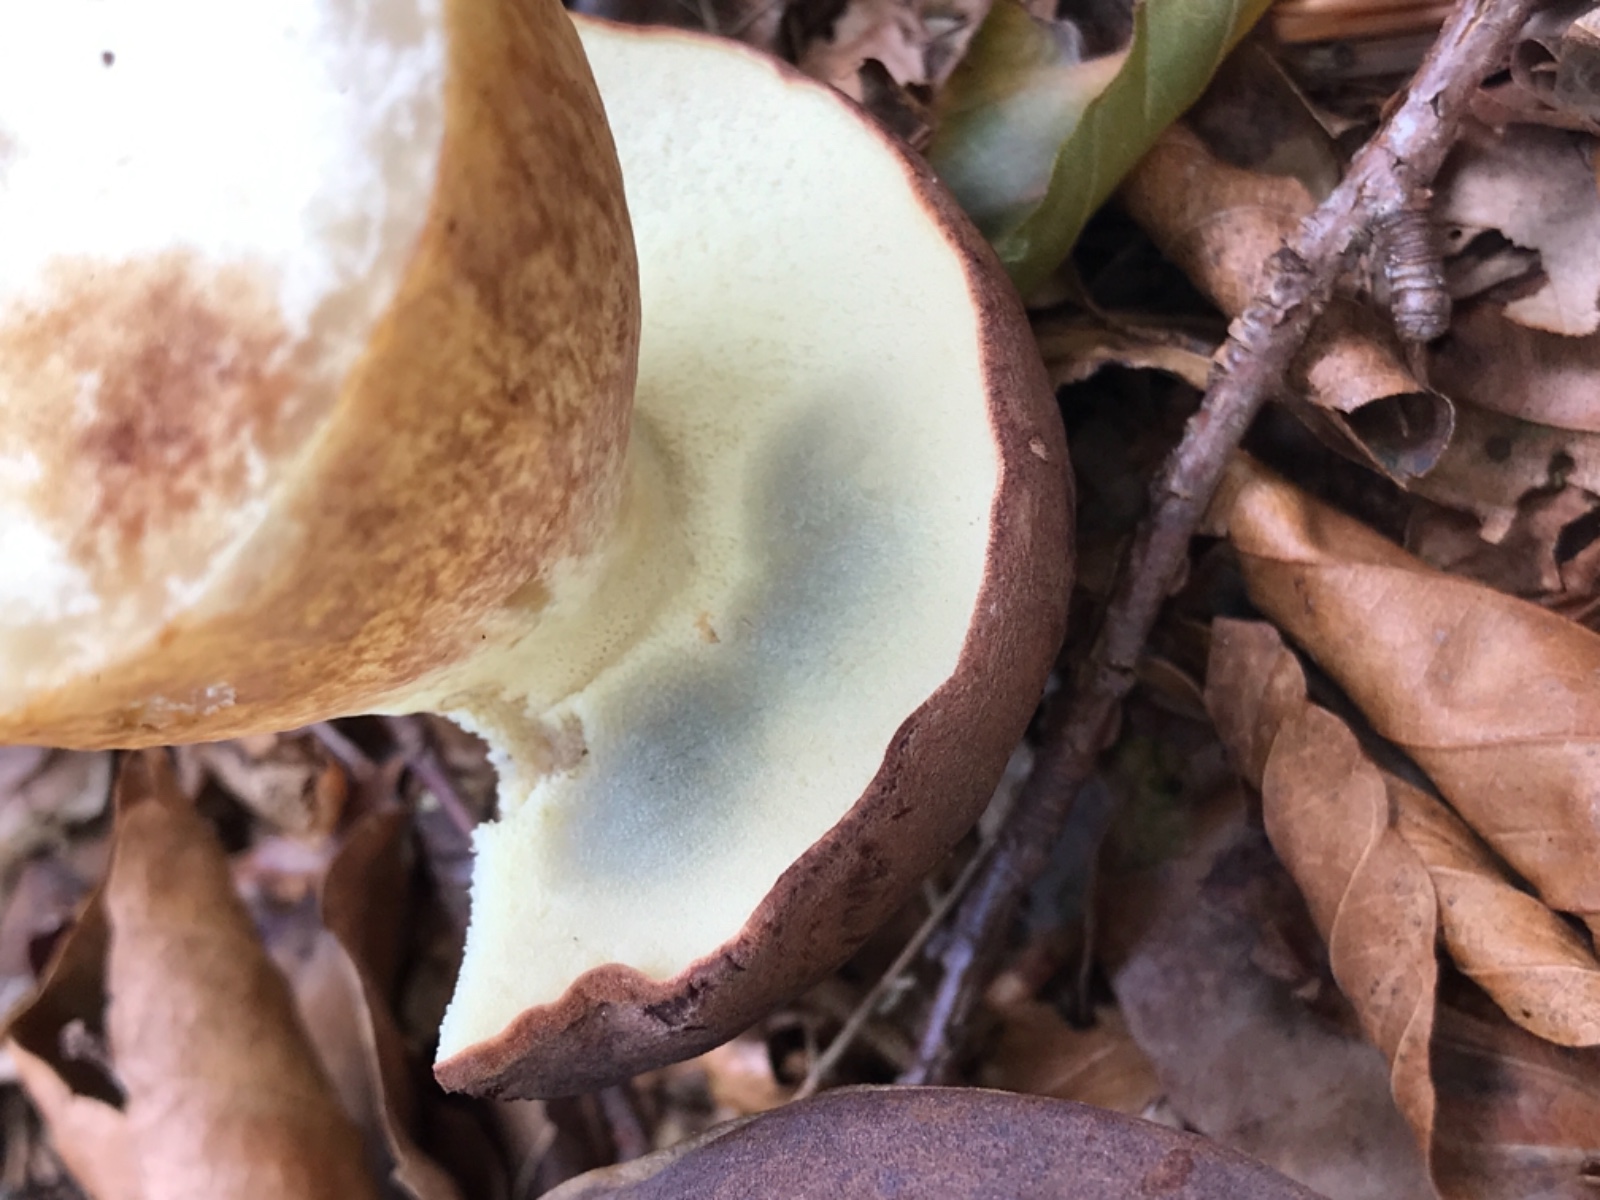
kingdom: Fungi
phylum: Basidiomycota
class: Agaricomycetes
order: Boletales
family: Boletaceae
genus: Imleria
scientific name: Imleria badia
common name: brunstokket rørhat
